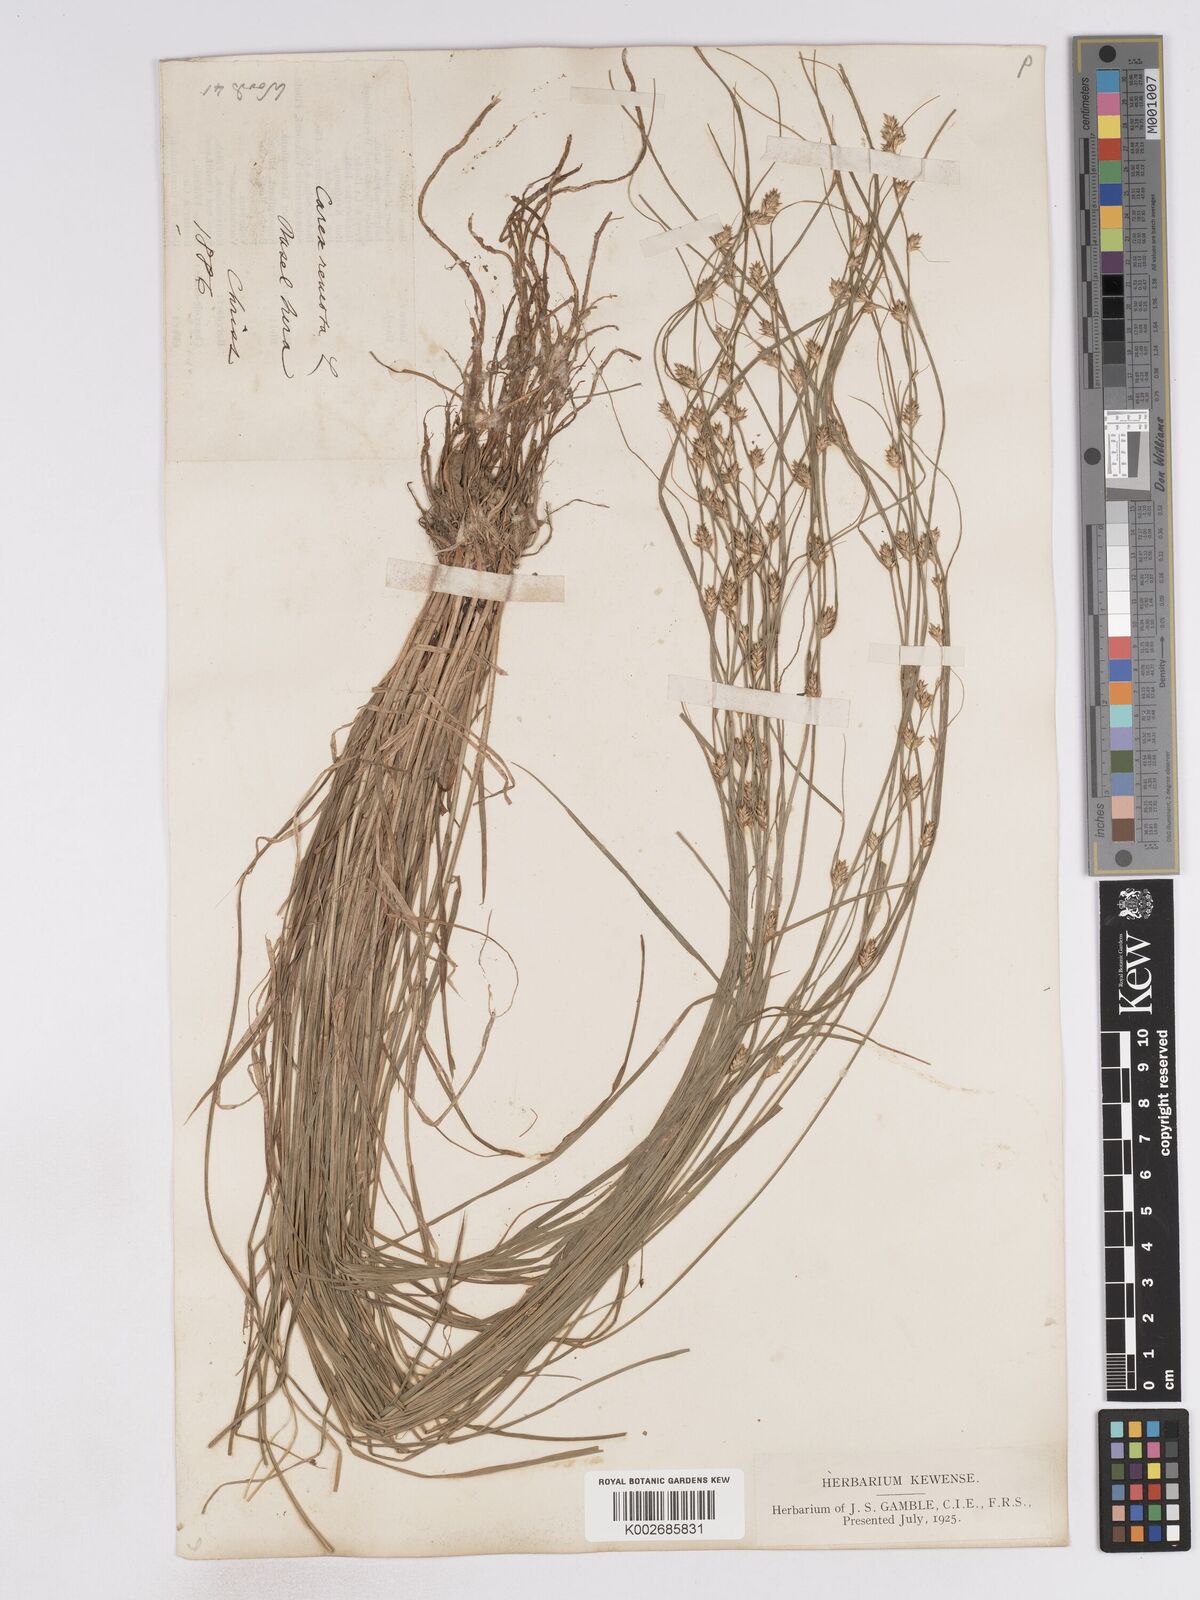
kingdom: Plantae
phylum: Tracheophyta
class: Liliopsida
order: Poales
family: Cyperaceae
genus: Carex
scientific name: Carex remota
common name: Remote sedge
